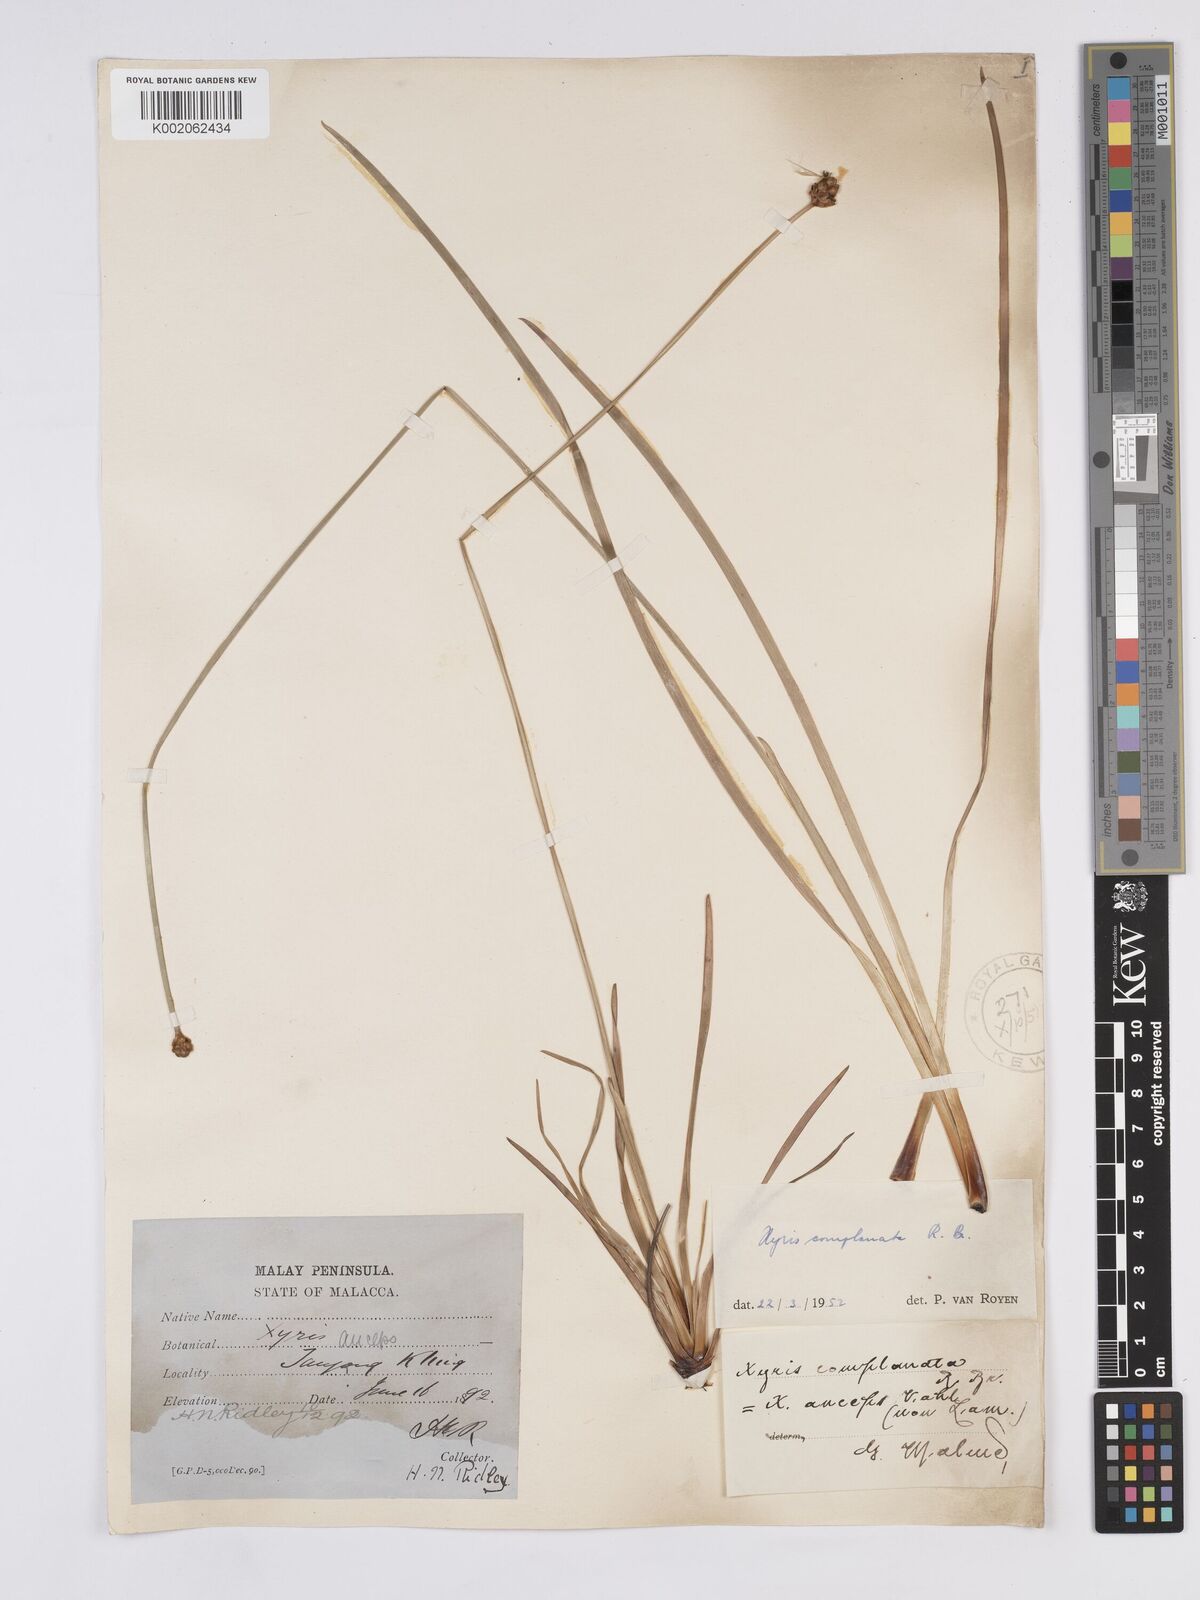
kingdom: Plantae
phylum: Tracheophyta
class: Liliopsida
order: Poales
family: Xyridaceae
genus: Xyris
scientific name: Xyris complanata
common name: Hawai'i yelloweyed grass
